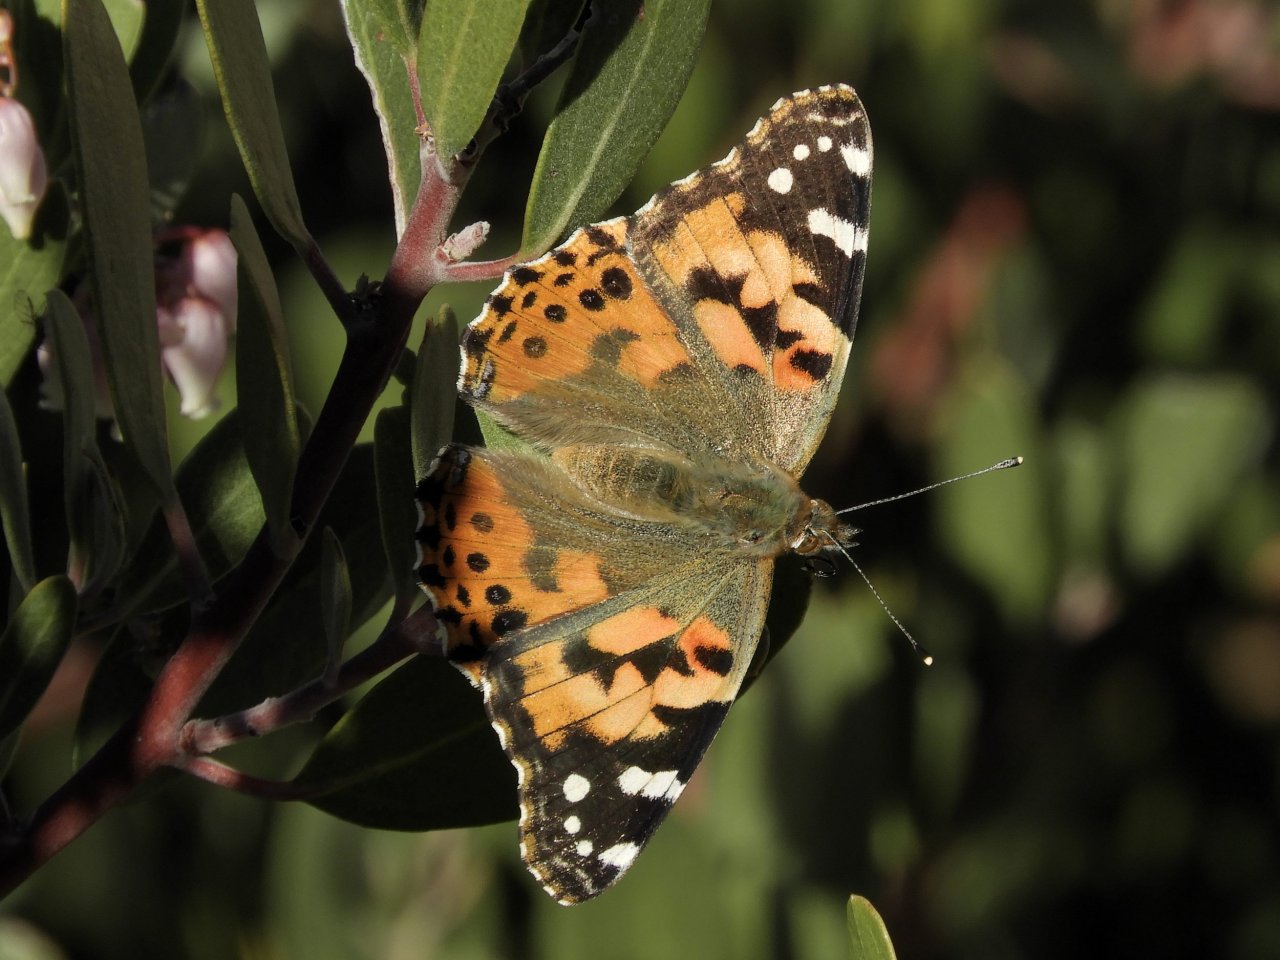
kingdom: Animalia
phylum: Arthropoda
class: Insecta
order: Lepidoptera
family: Nymphalidae
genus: Vanessa
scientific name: Vanessa cardui
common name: Painted Lady
